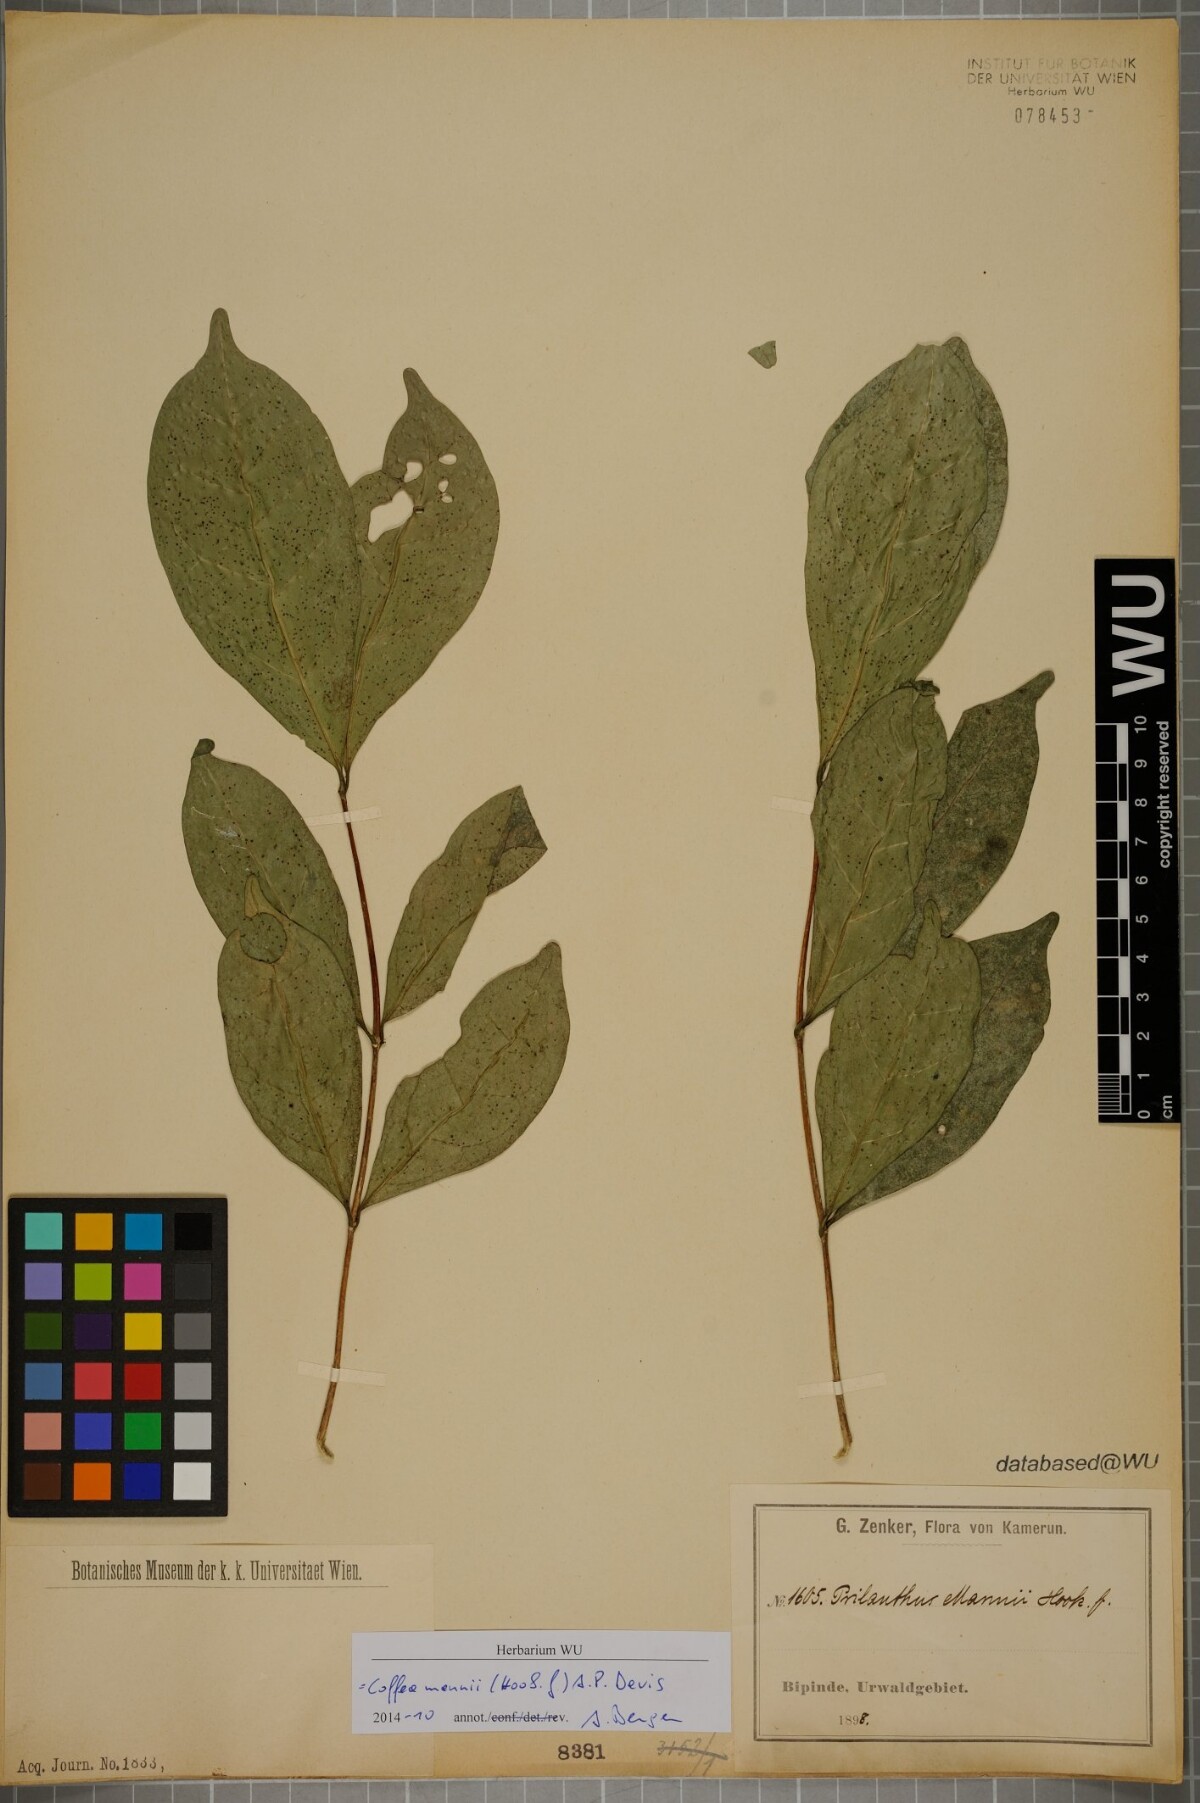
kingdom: Plantae
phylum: Tracheophyta
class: Magnoliopsida
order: Gentianales
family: Rubiaceae
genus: Coffea
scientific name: Coffea mannii
